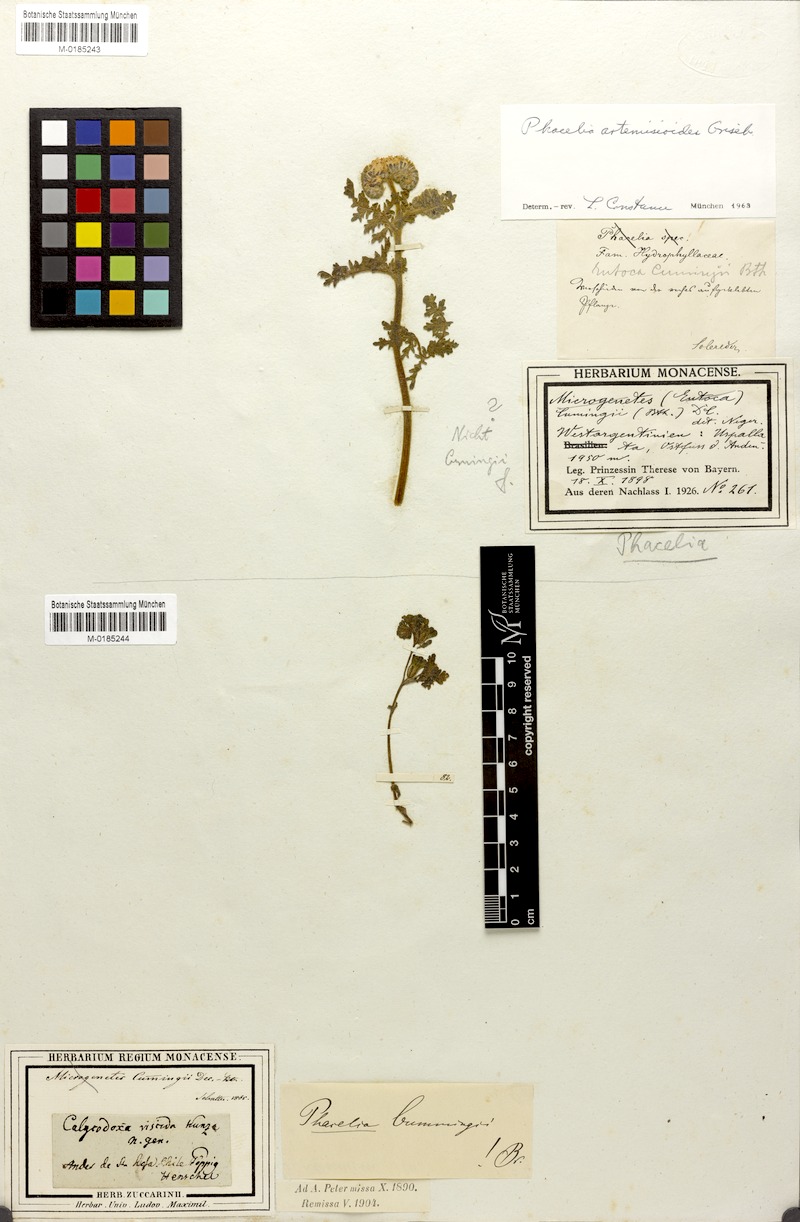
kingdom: Plantae
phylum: Tracheophyta
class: Magnoliopsida
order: Boraginales
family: Hydrophyllaceae
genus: Phacelia
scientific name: Phacelia artemisioides
